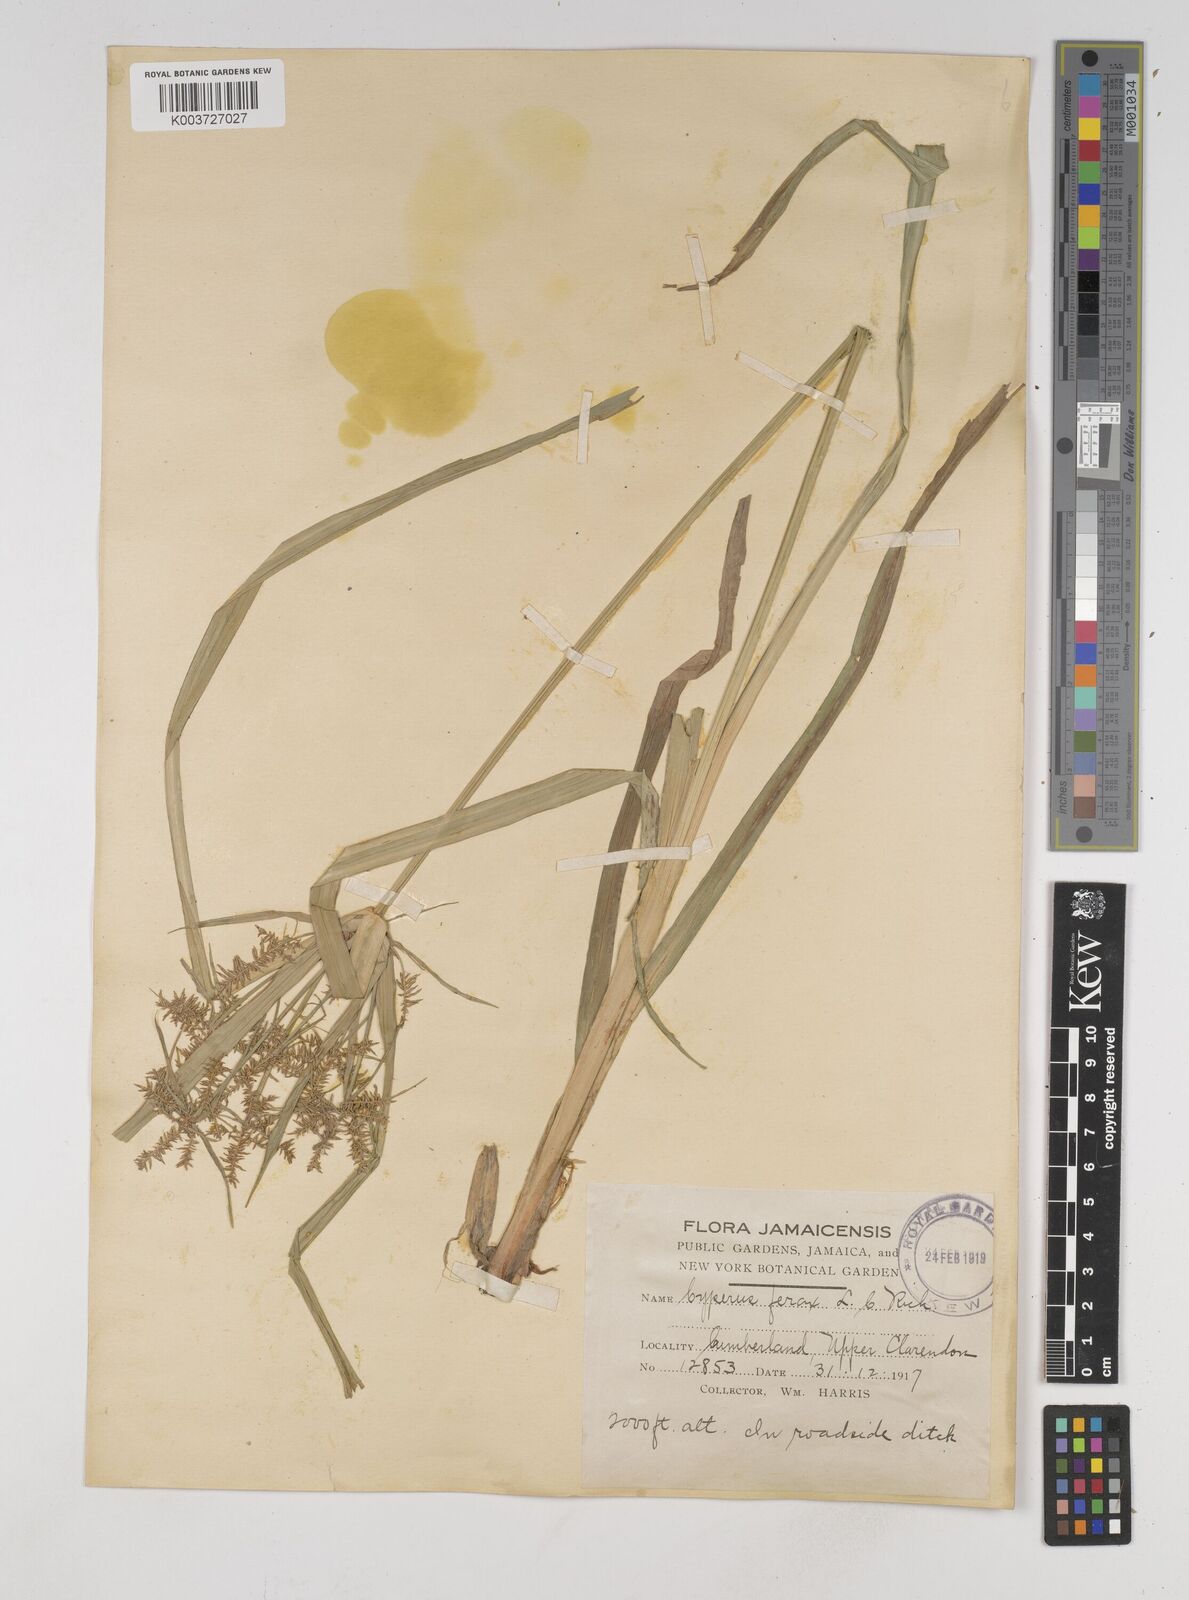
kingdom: Plantae
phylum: Tracheophyta
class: Liliopsida
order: Poales
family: Cyperaceae
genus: Cyperus
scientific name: Cyperus odoratus
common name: Fragrant flatsedge
